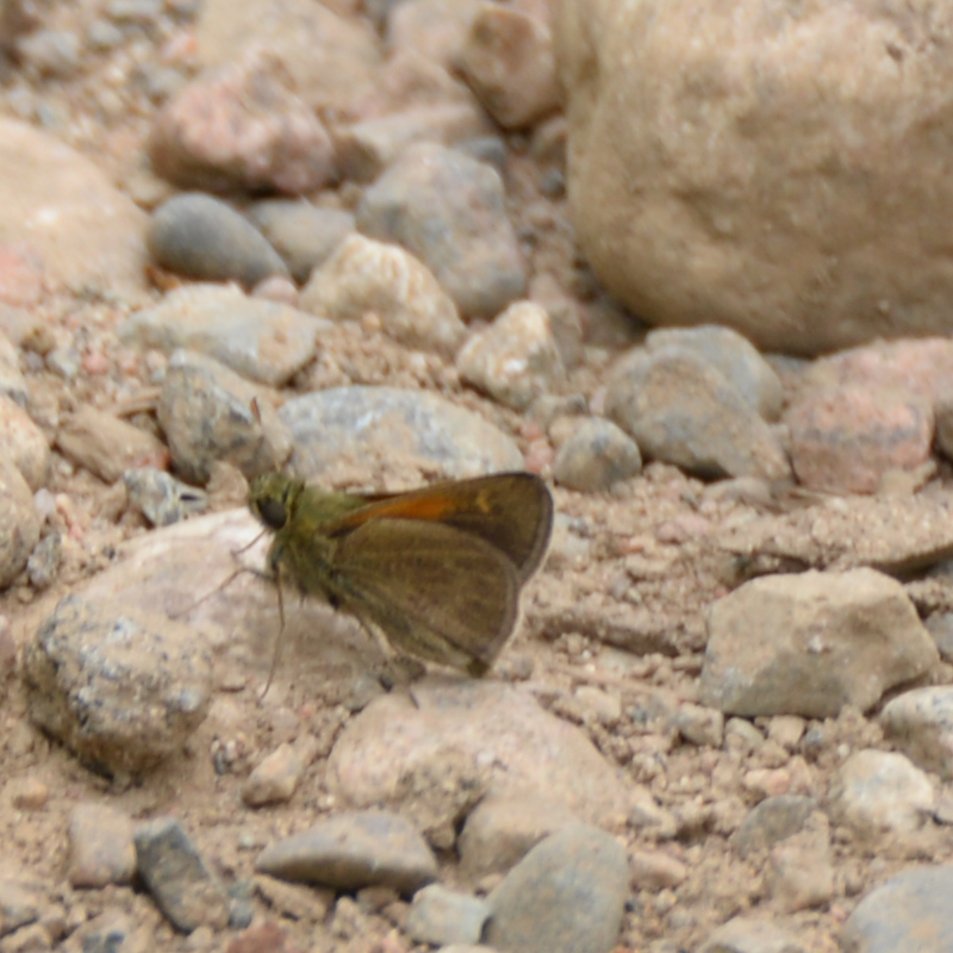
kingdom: Animalia
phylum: Arthropoda
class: Insecta
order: Lepidoptera
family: Hesperiidae
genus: Polites
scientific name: Polites themistocles
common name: Tawny-edged Skipper
